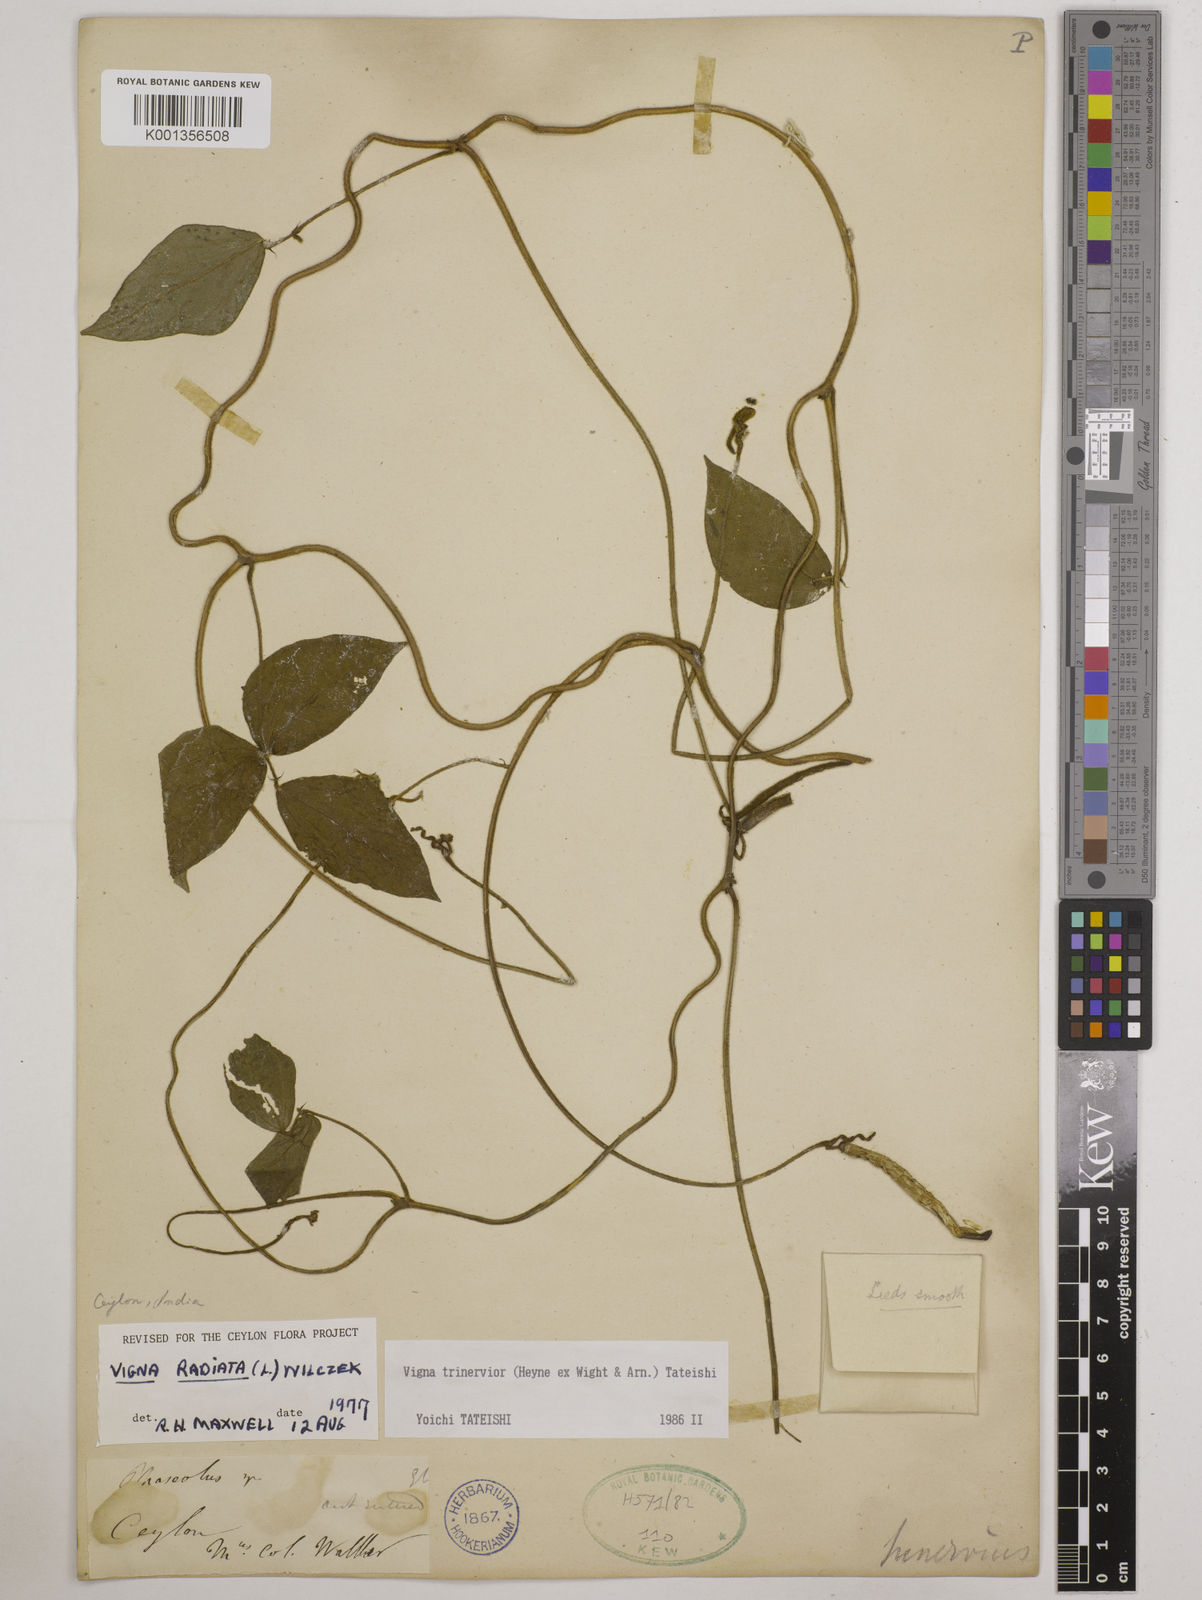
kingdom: Plantae
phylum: Tracheophyta
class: Magnoliopsida
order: Fabales
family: Fabaceae
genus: Vigna
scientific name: Vigna radiata
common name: Mung-bean
